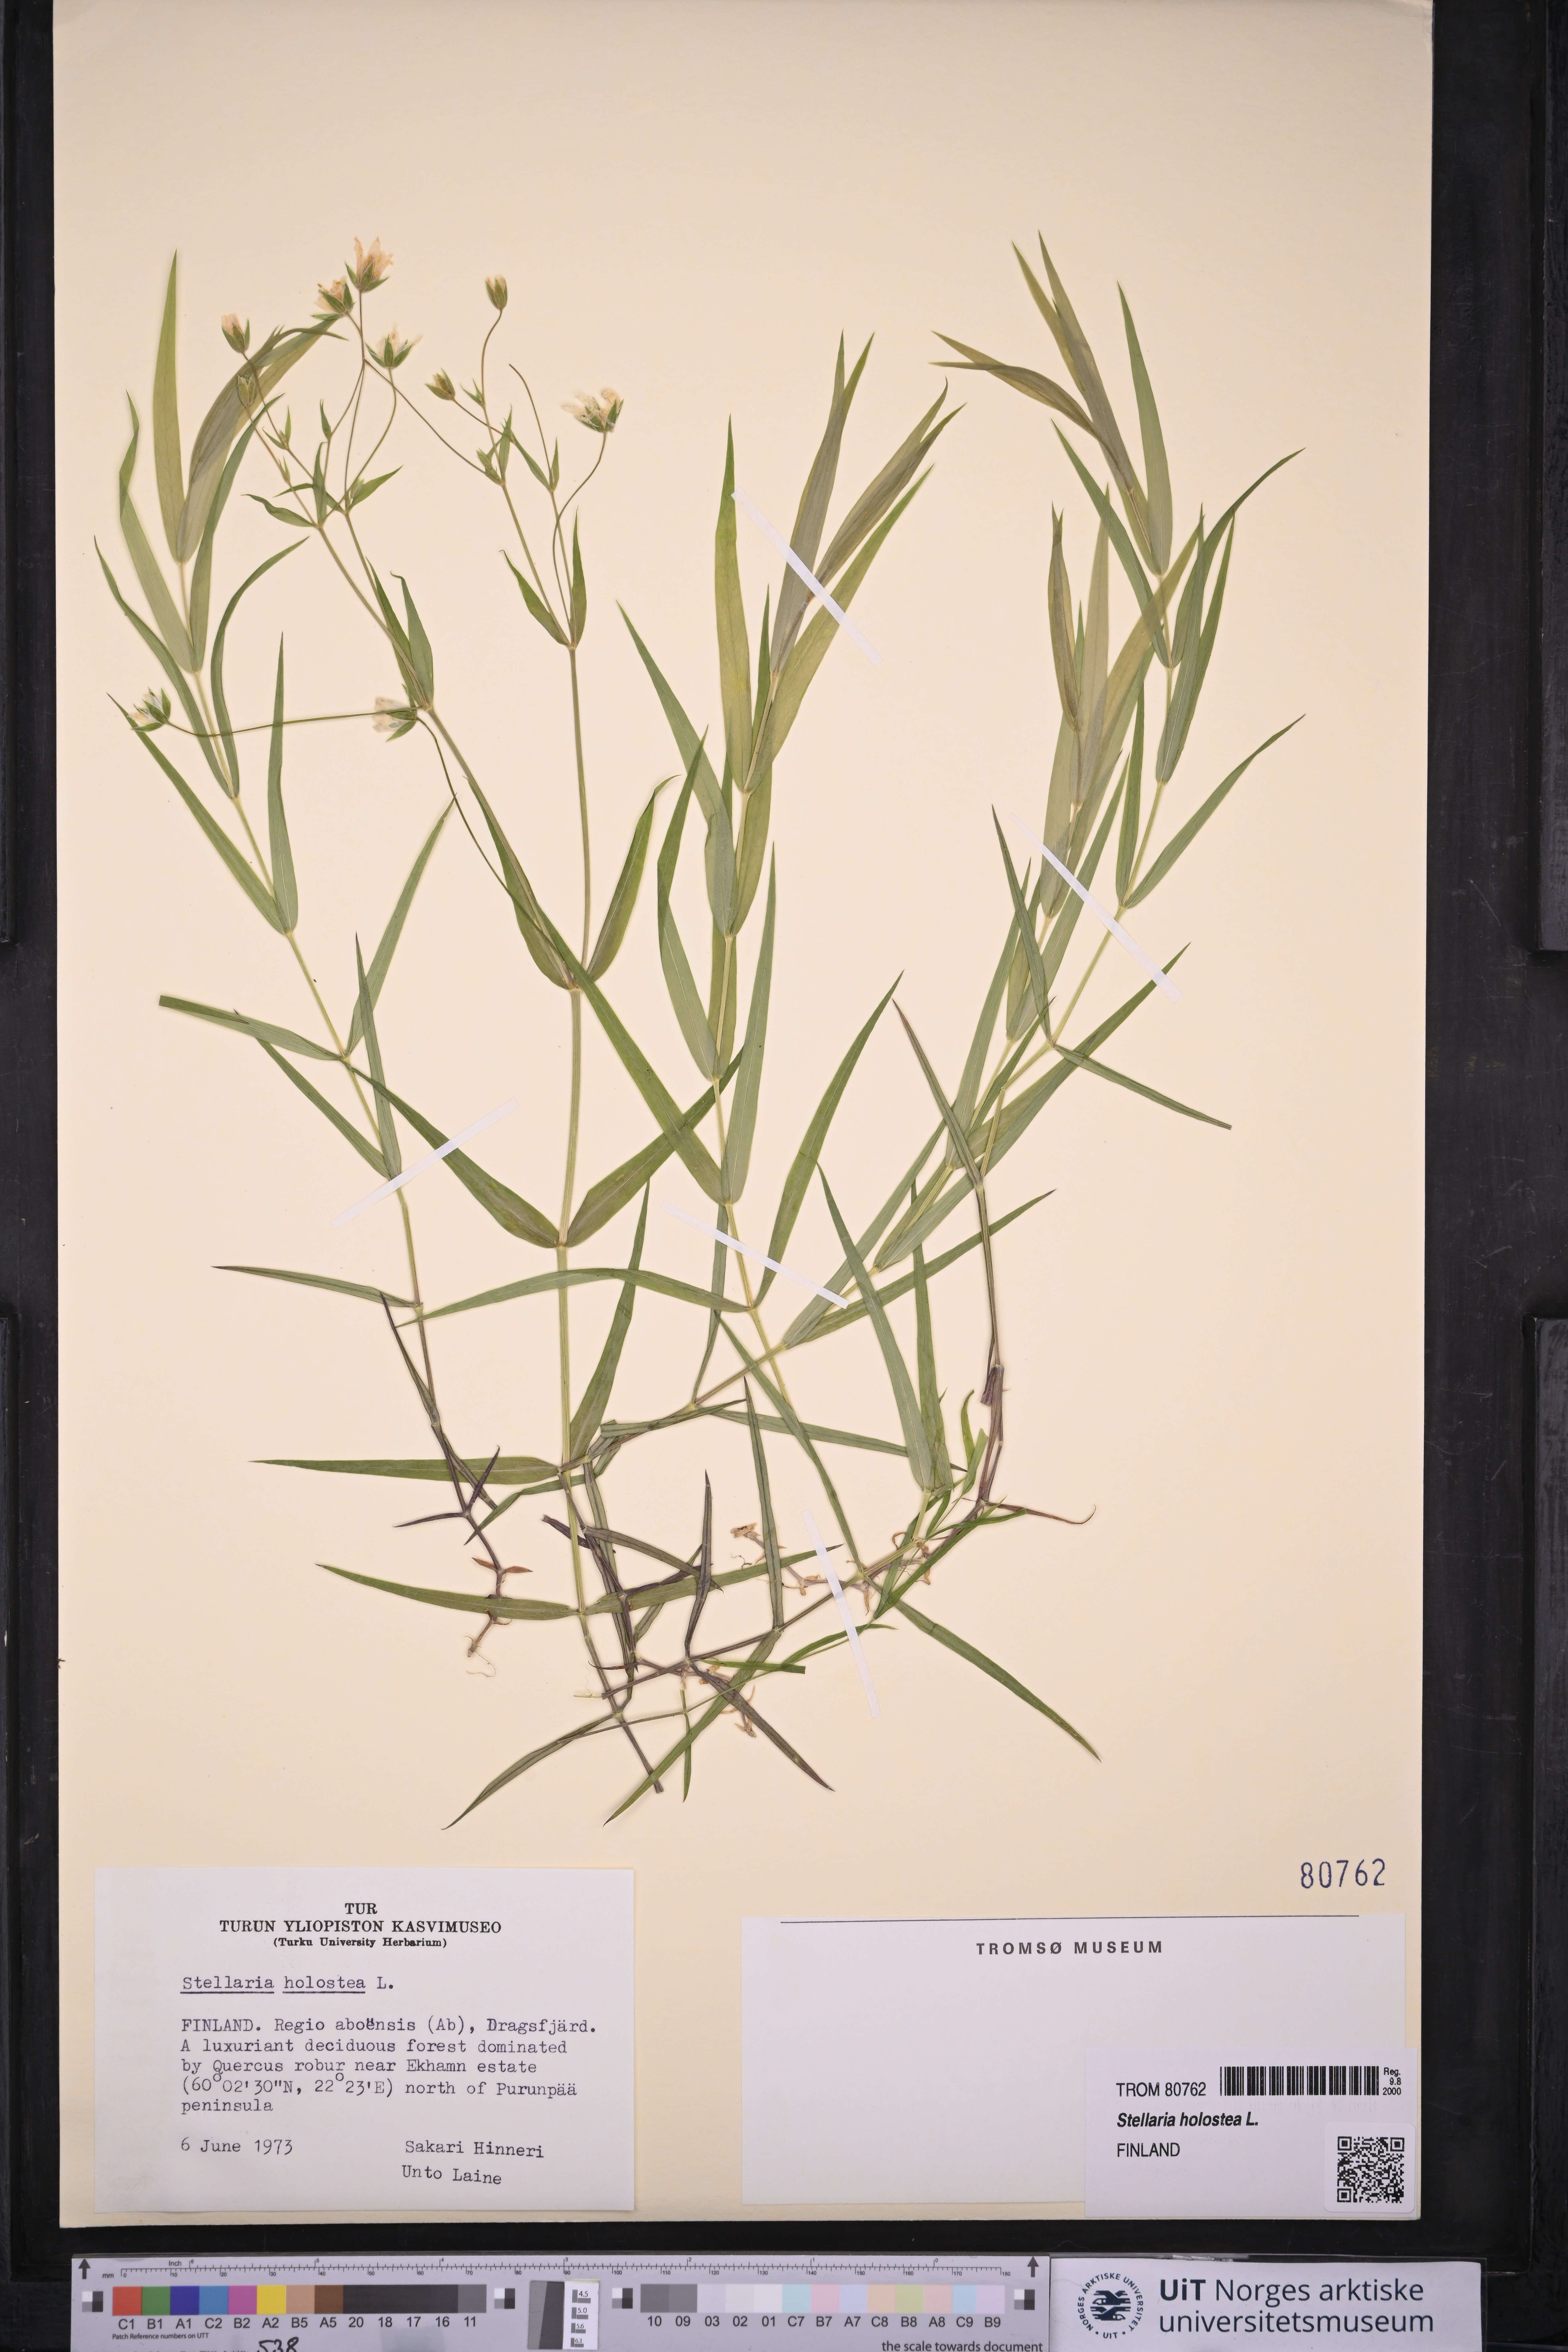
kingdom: Plantae
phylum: Tracheophyta
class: Magnoliopsida
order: Caryophyllales
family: Caryophyllaceae
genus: Rabelera
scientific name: Rabelera holostea
